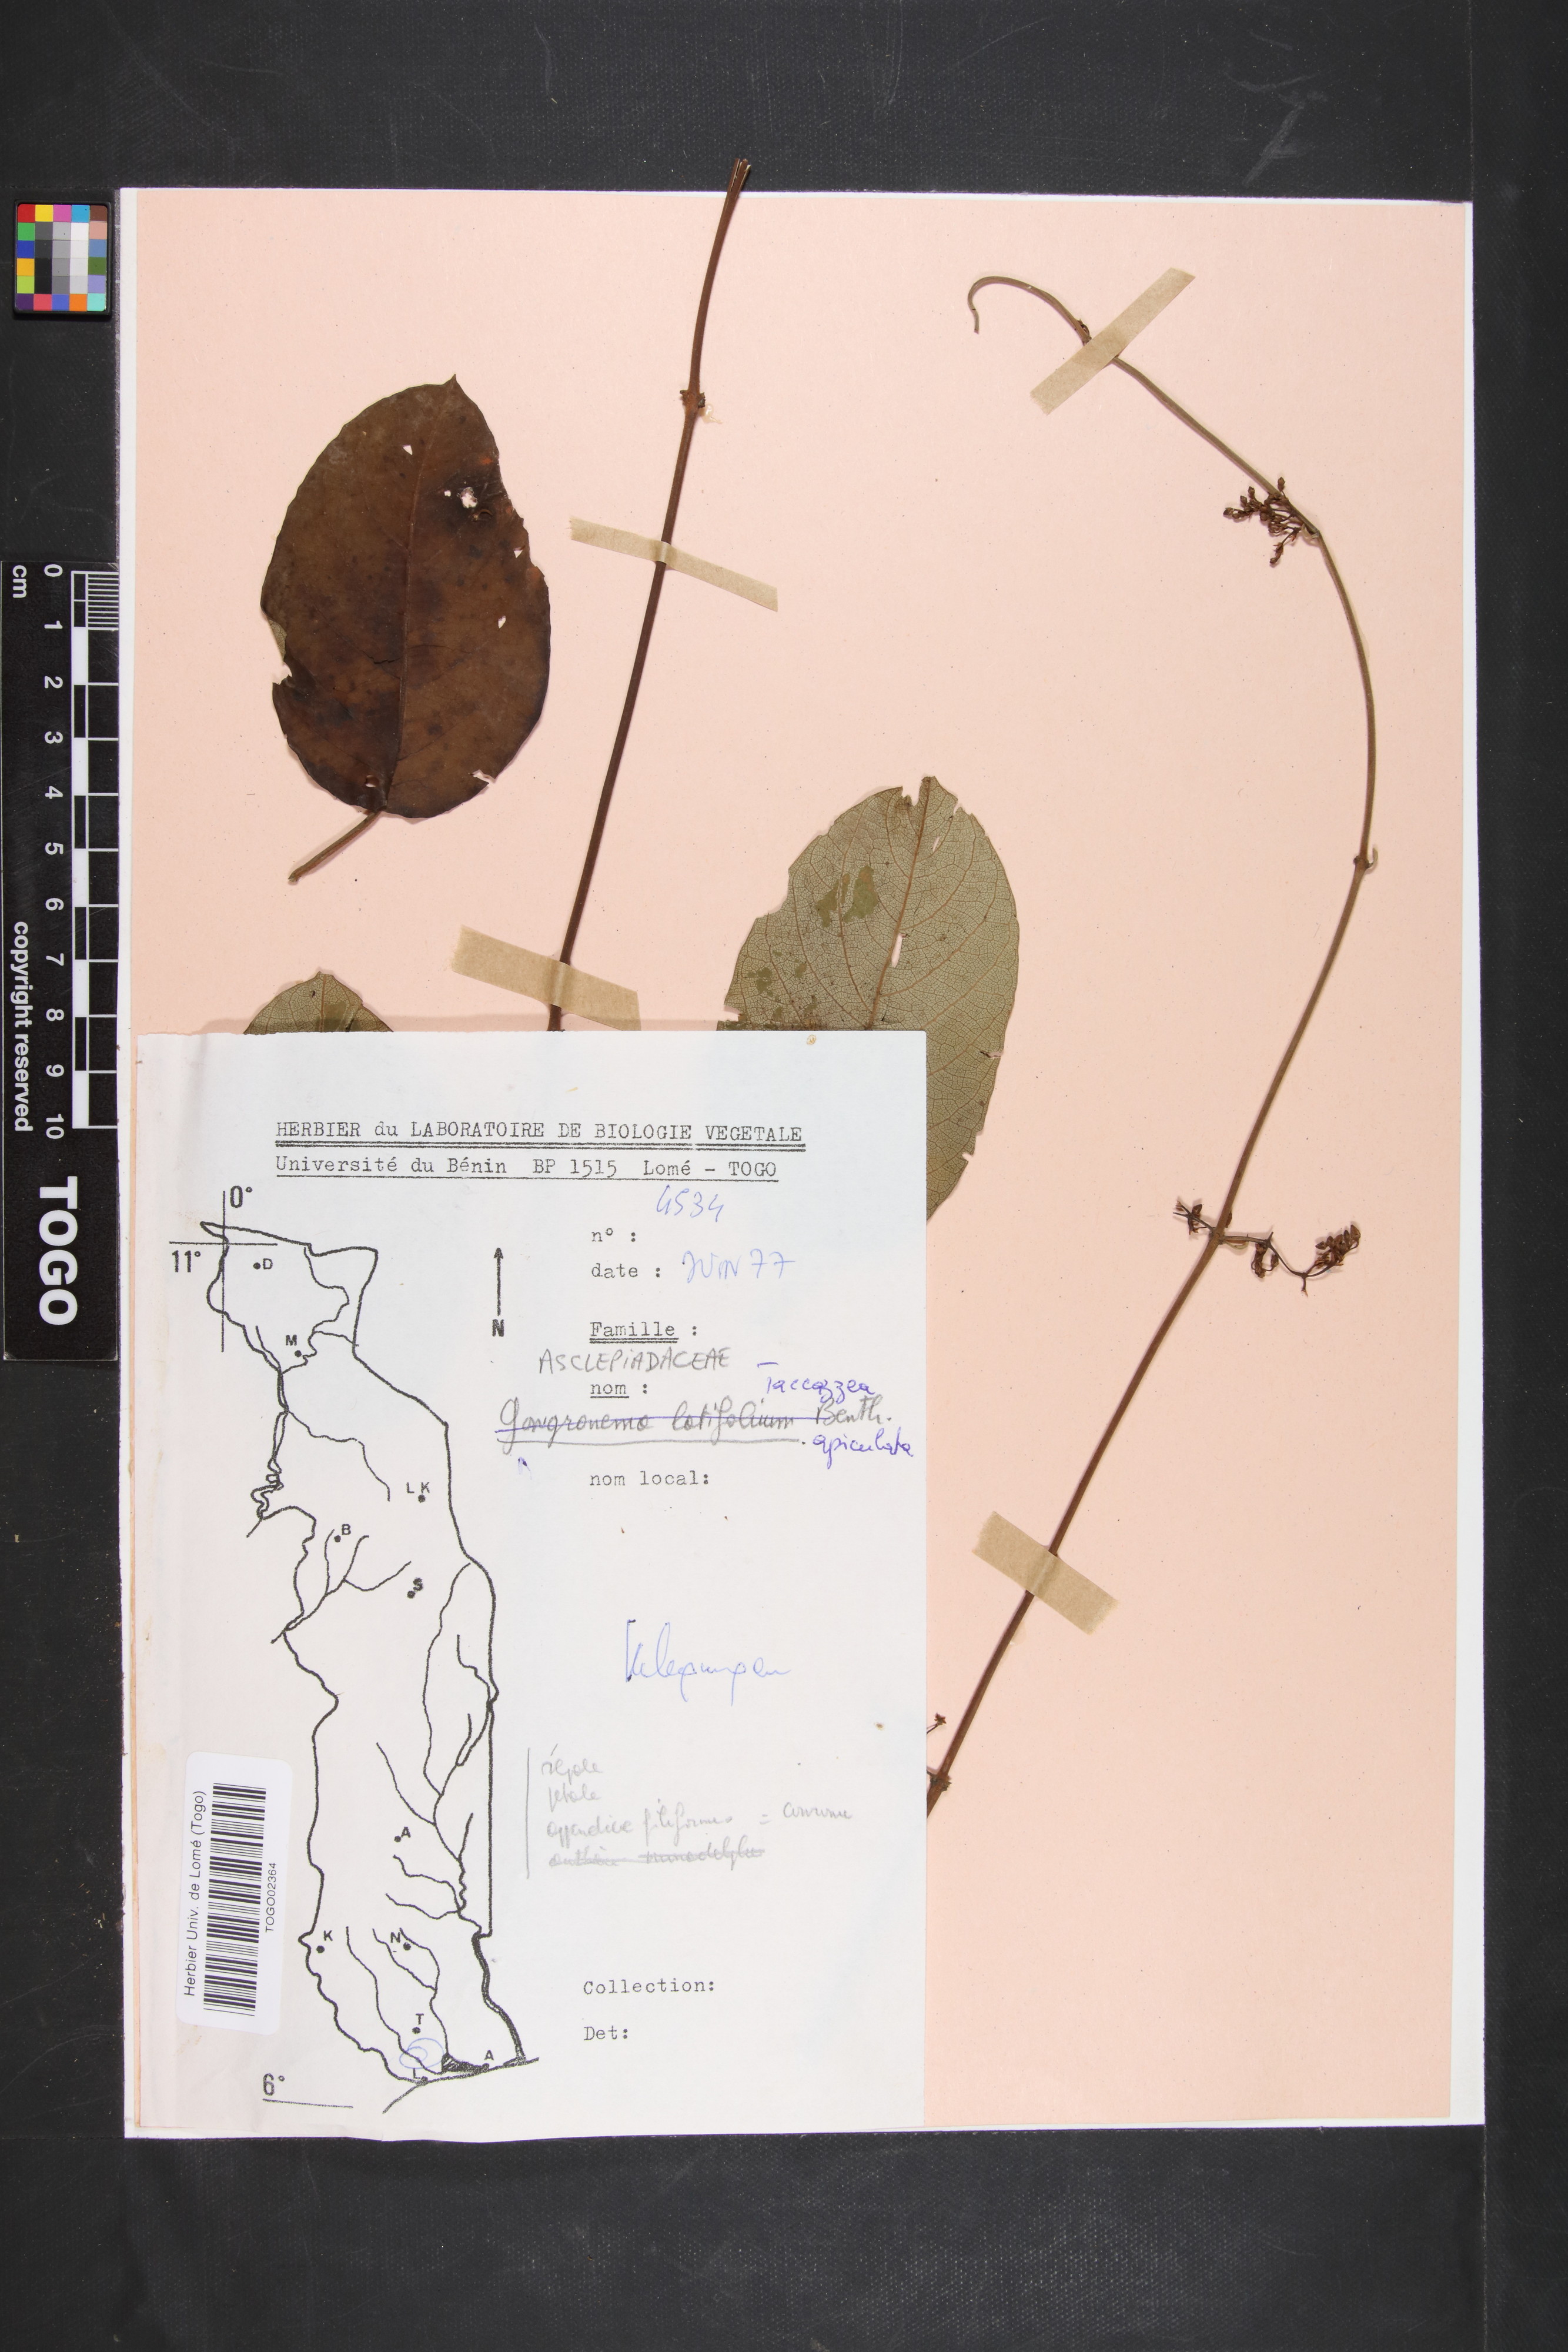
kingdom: Plantae
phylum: Tracheophyta
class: Magnoliopsida
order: Gentianales
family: Apocynaceae
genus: Tacazzea
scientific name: Tacazzea apiculata
